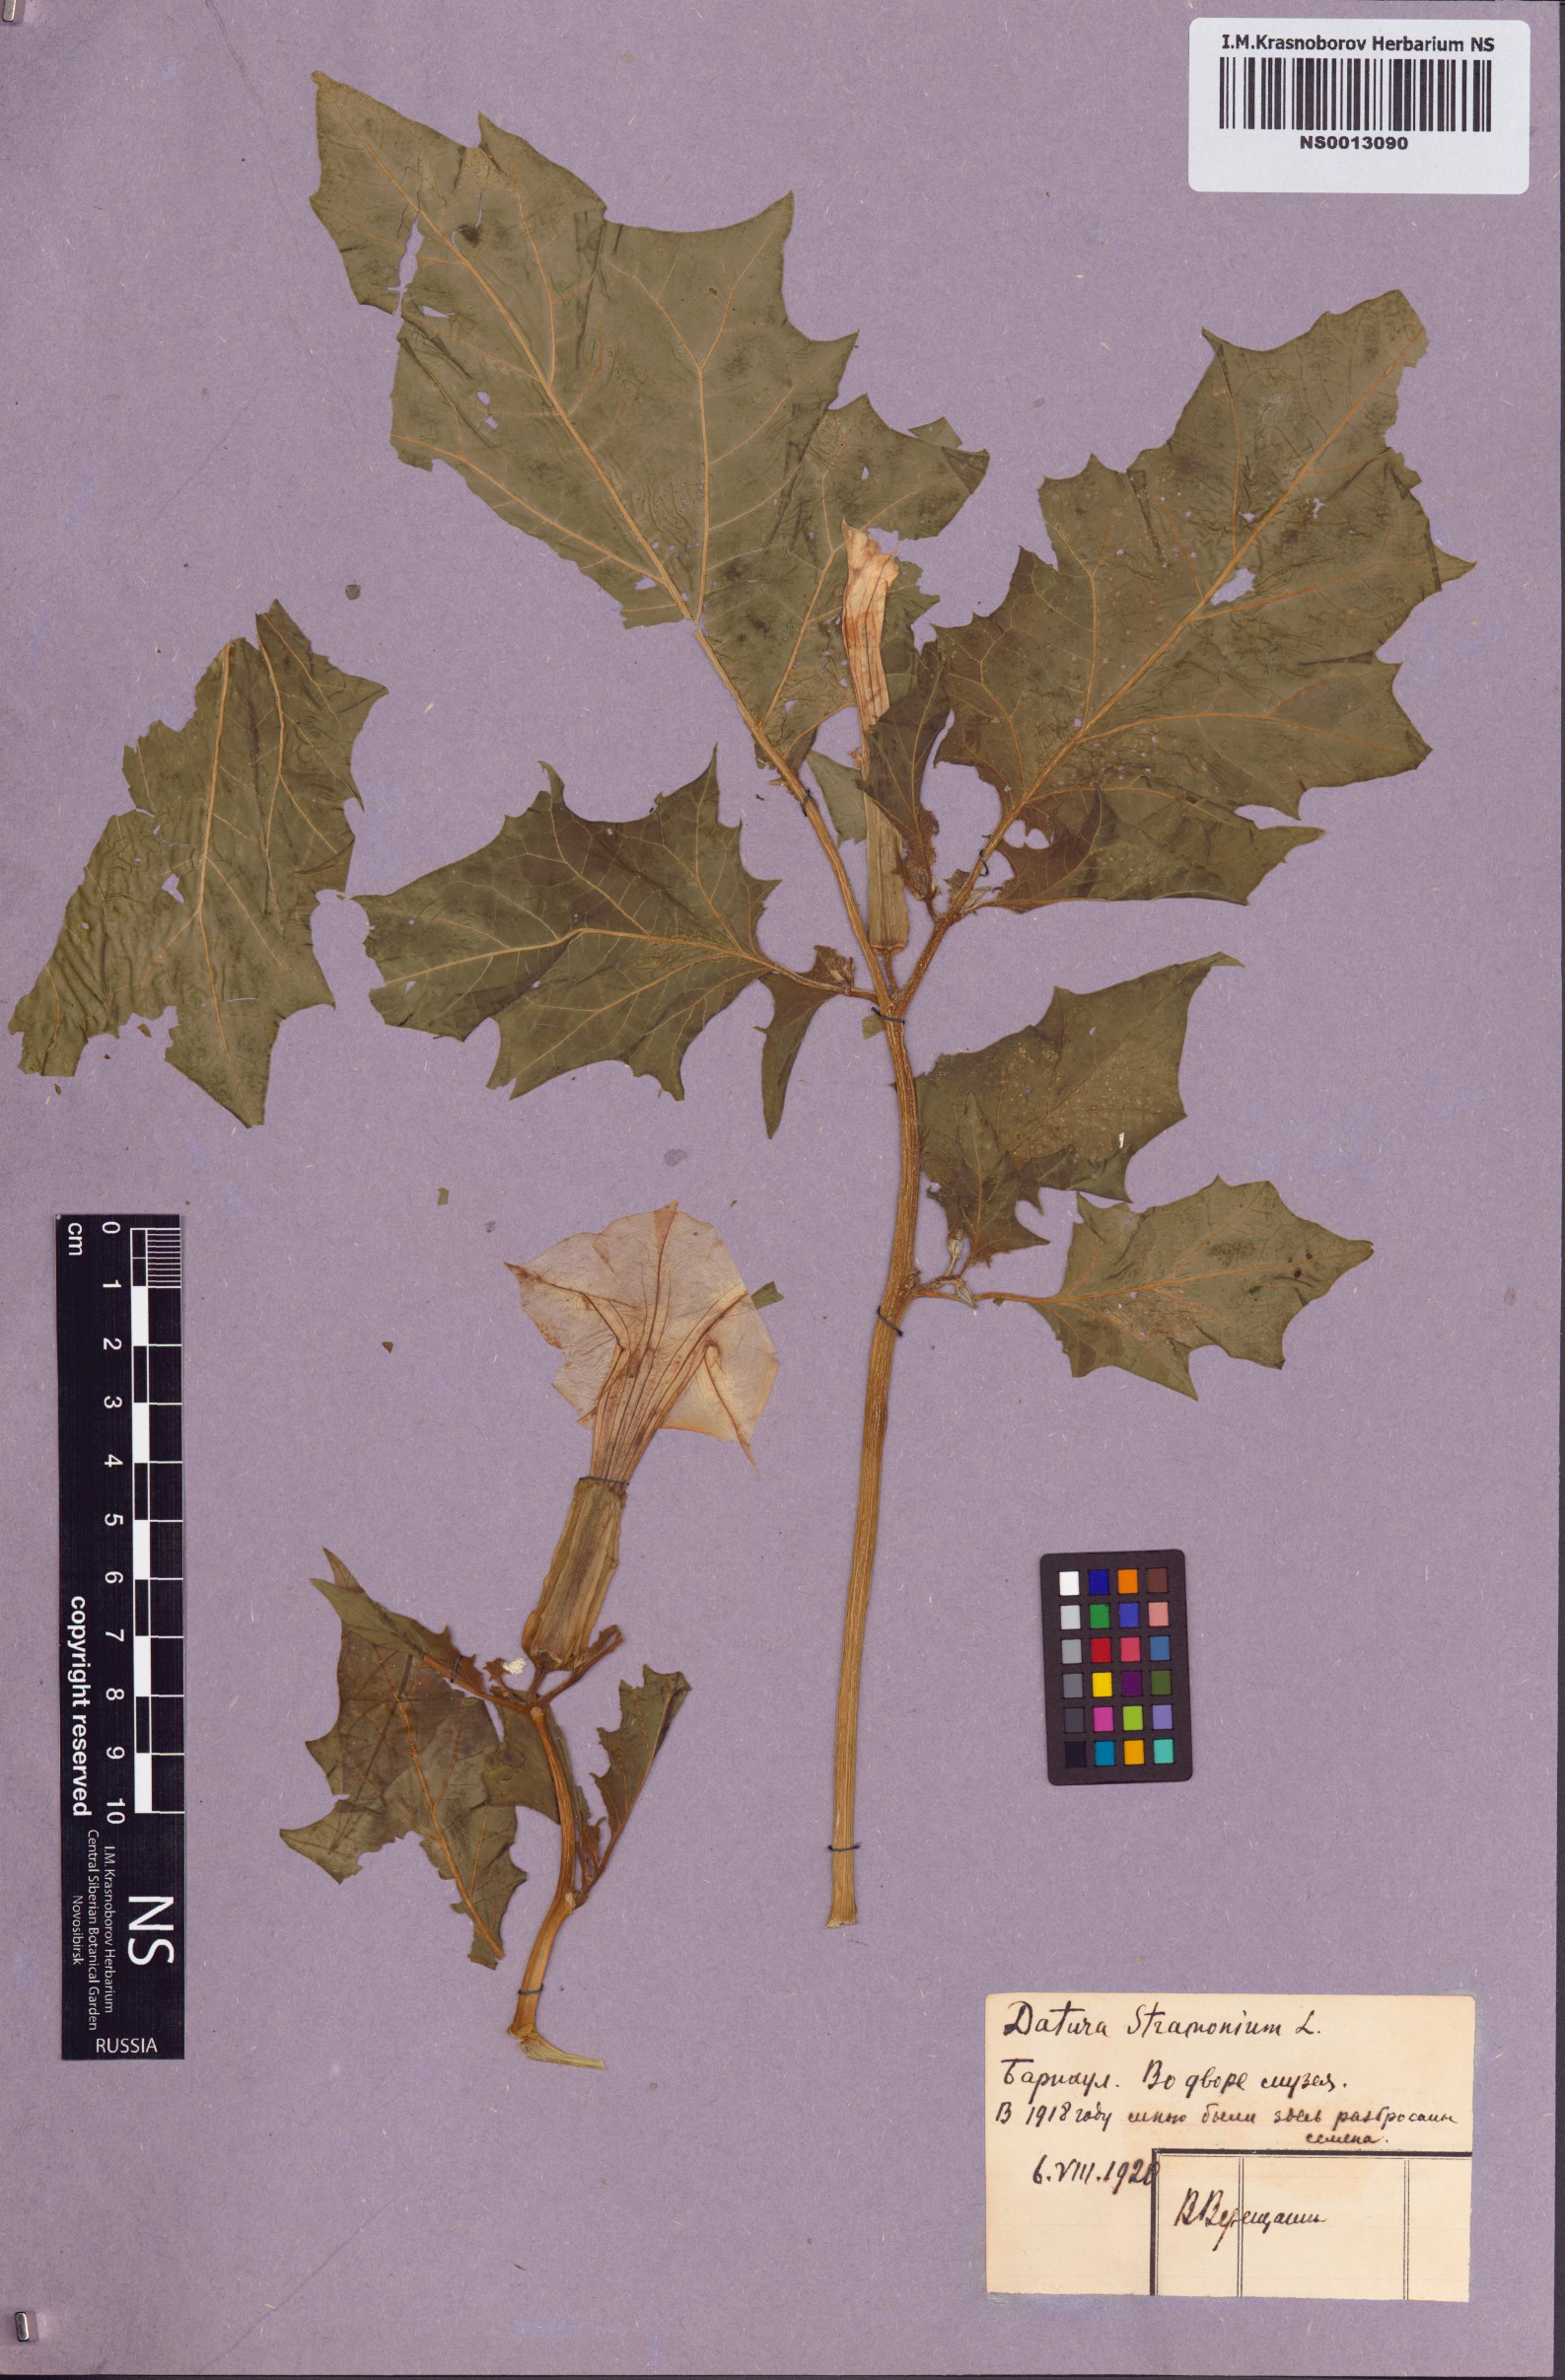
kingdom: Plantae
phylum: Tracheophyta
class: Magnoliopsida
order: Solanales
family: Solanaceae
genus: Datura
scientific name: Datura stramonium
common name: Thorn-apple
